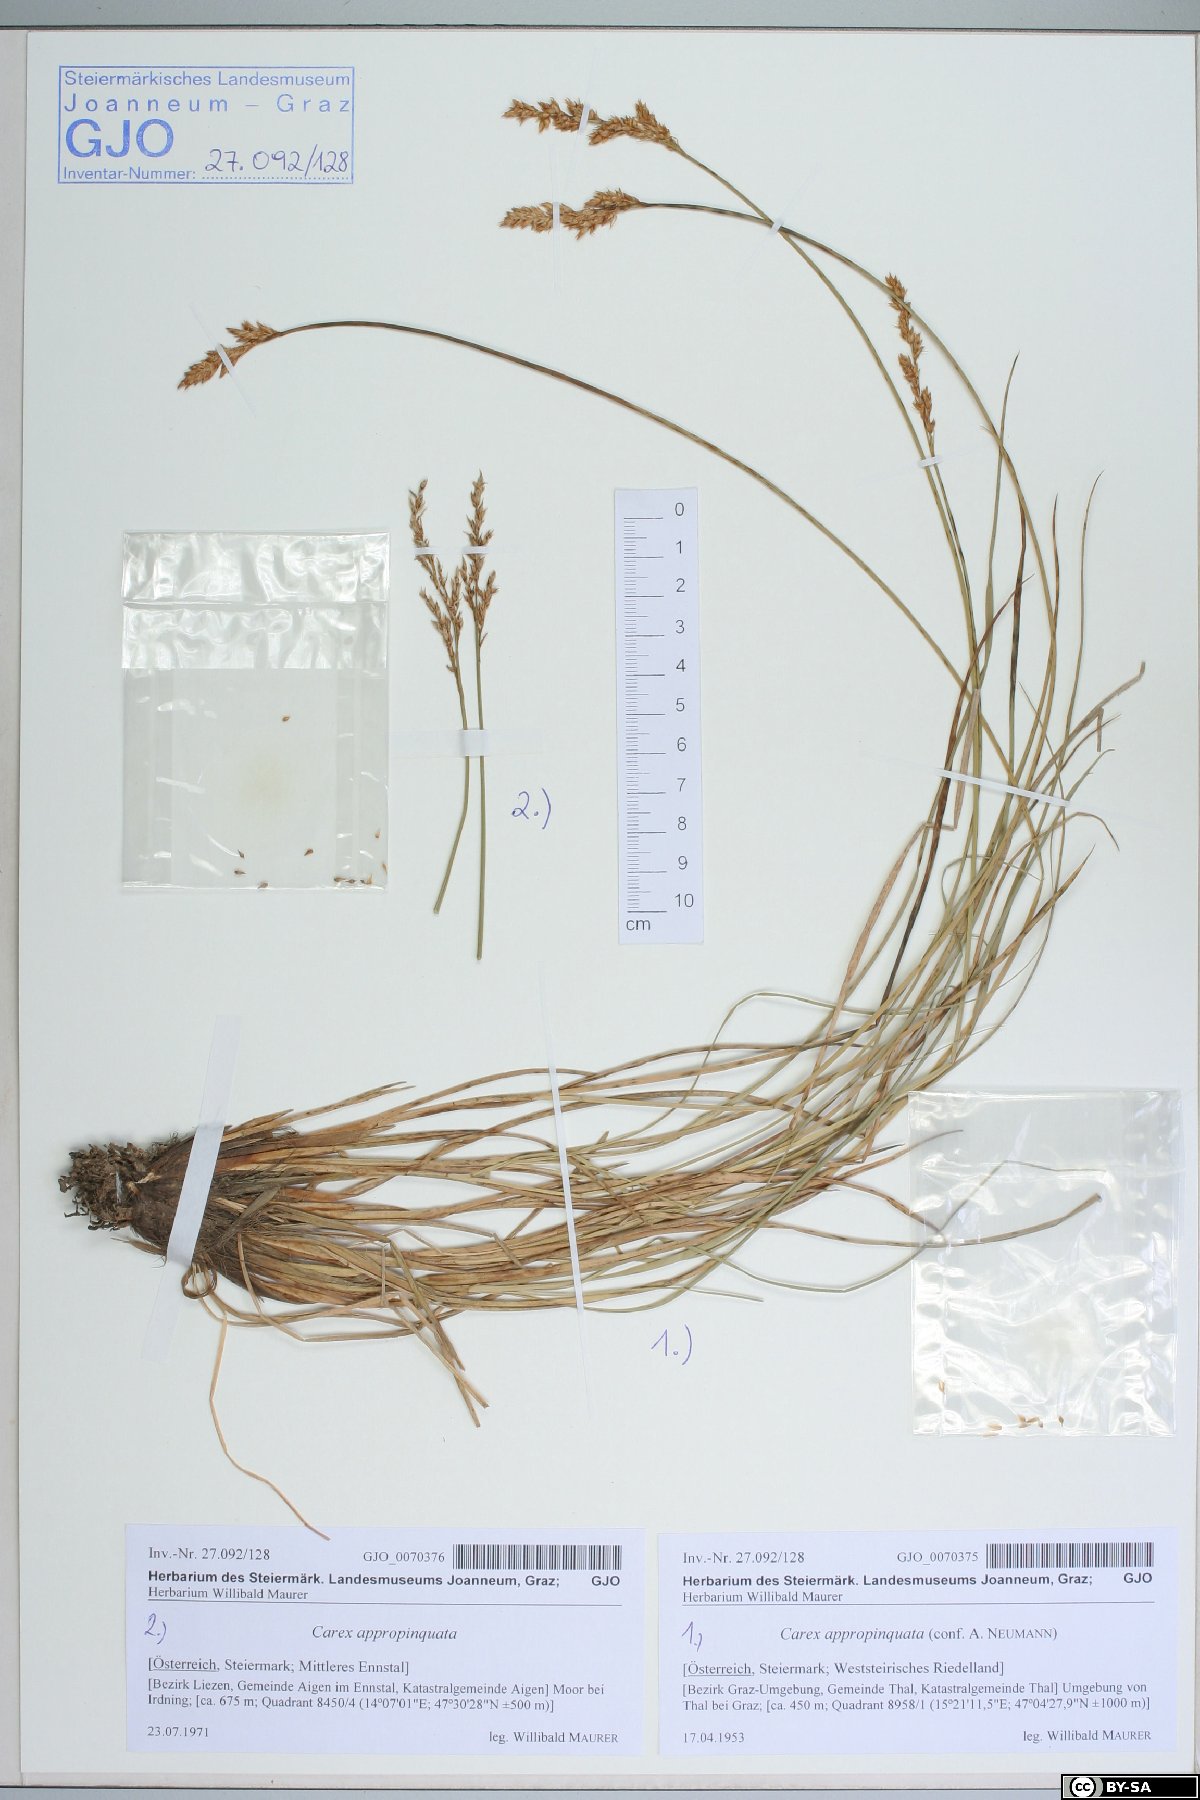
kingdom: Plantae
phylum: Tracheophyta
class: Liliopsida
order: Poales
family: Cyperaceae
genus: Carex
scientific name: Carex appropinquata
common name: Fibrous tussock-sedge
